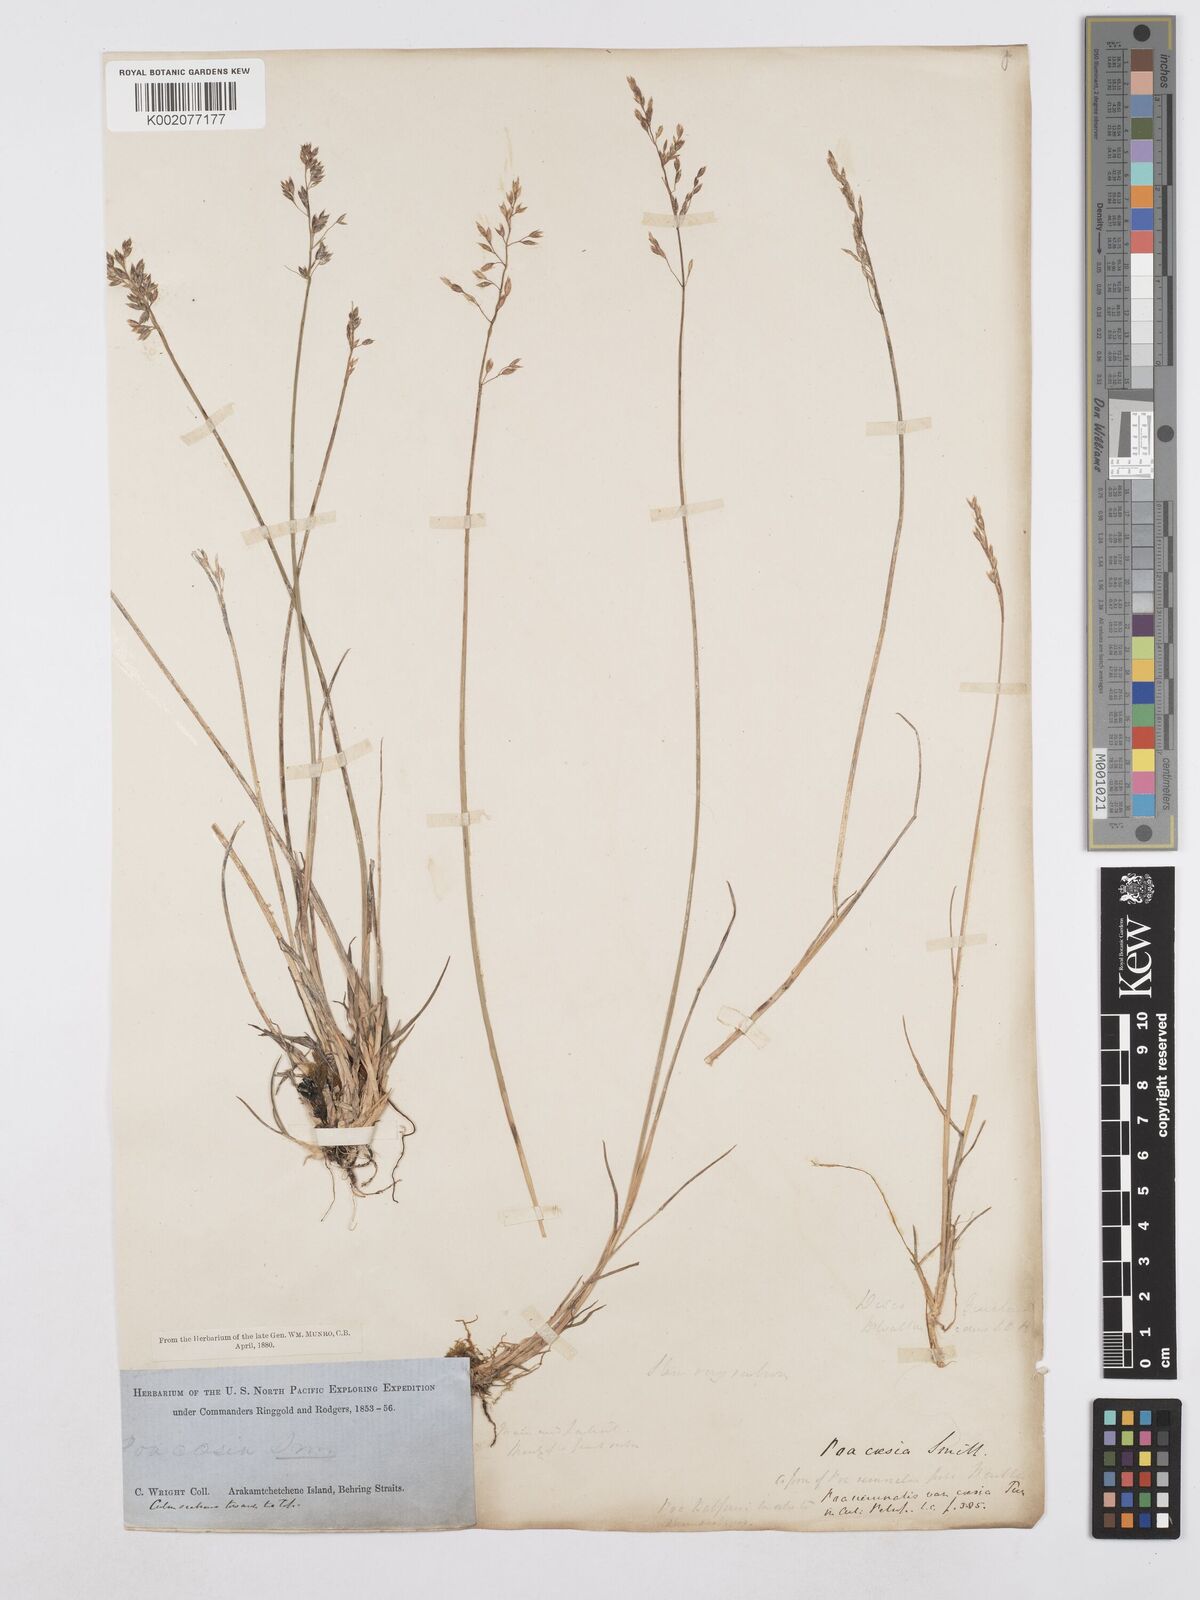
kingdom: Plantae
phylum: Tracheophyta
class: Liliopsida
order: Poales
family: Poaceae
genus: Poa
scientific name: Poa nemoralis
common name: Wood bluegrass
